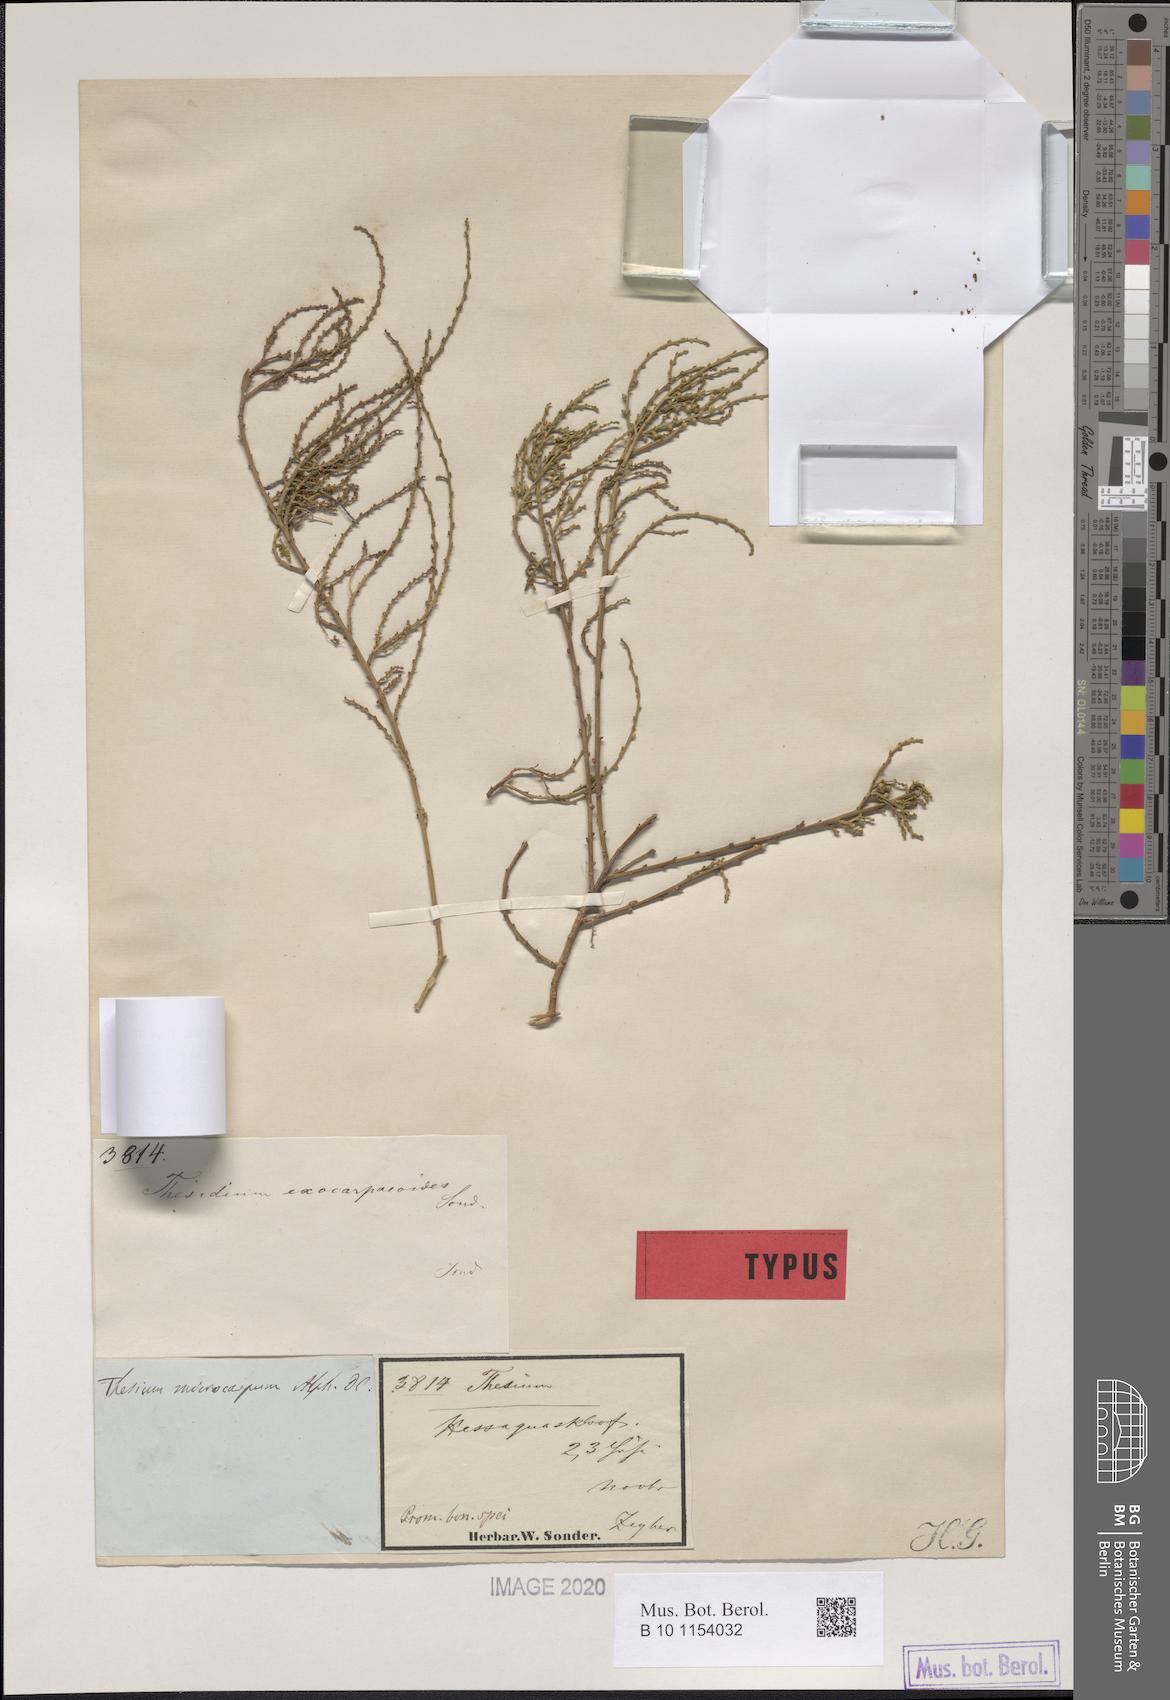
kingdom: Plantae
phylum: Tracheophyta
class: Magnoliopsida
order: Santalales
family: Thesiaceae
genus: Thesium
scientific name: Thesium confusum
